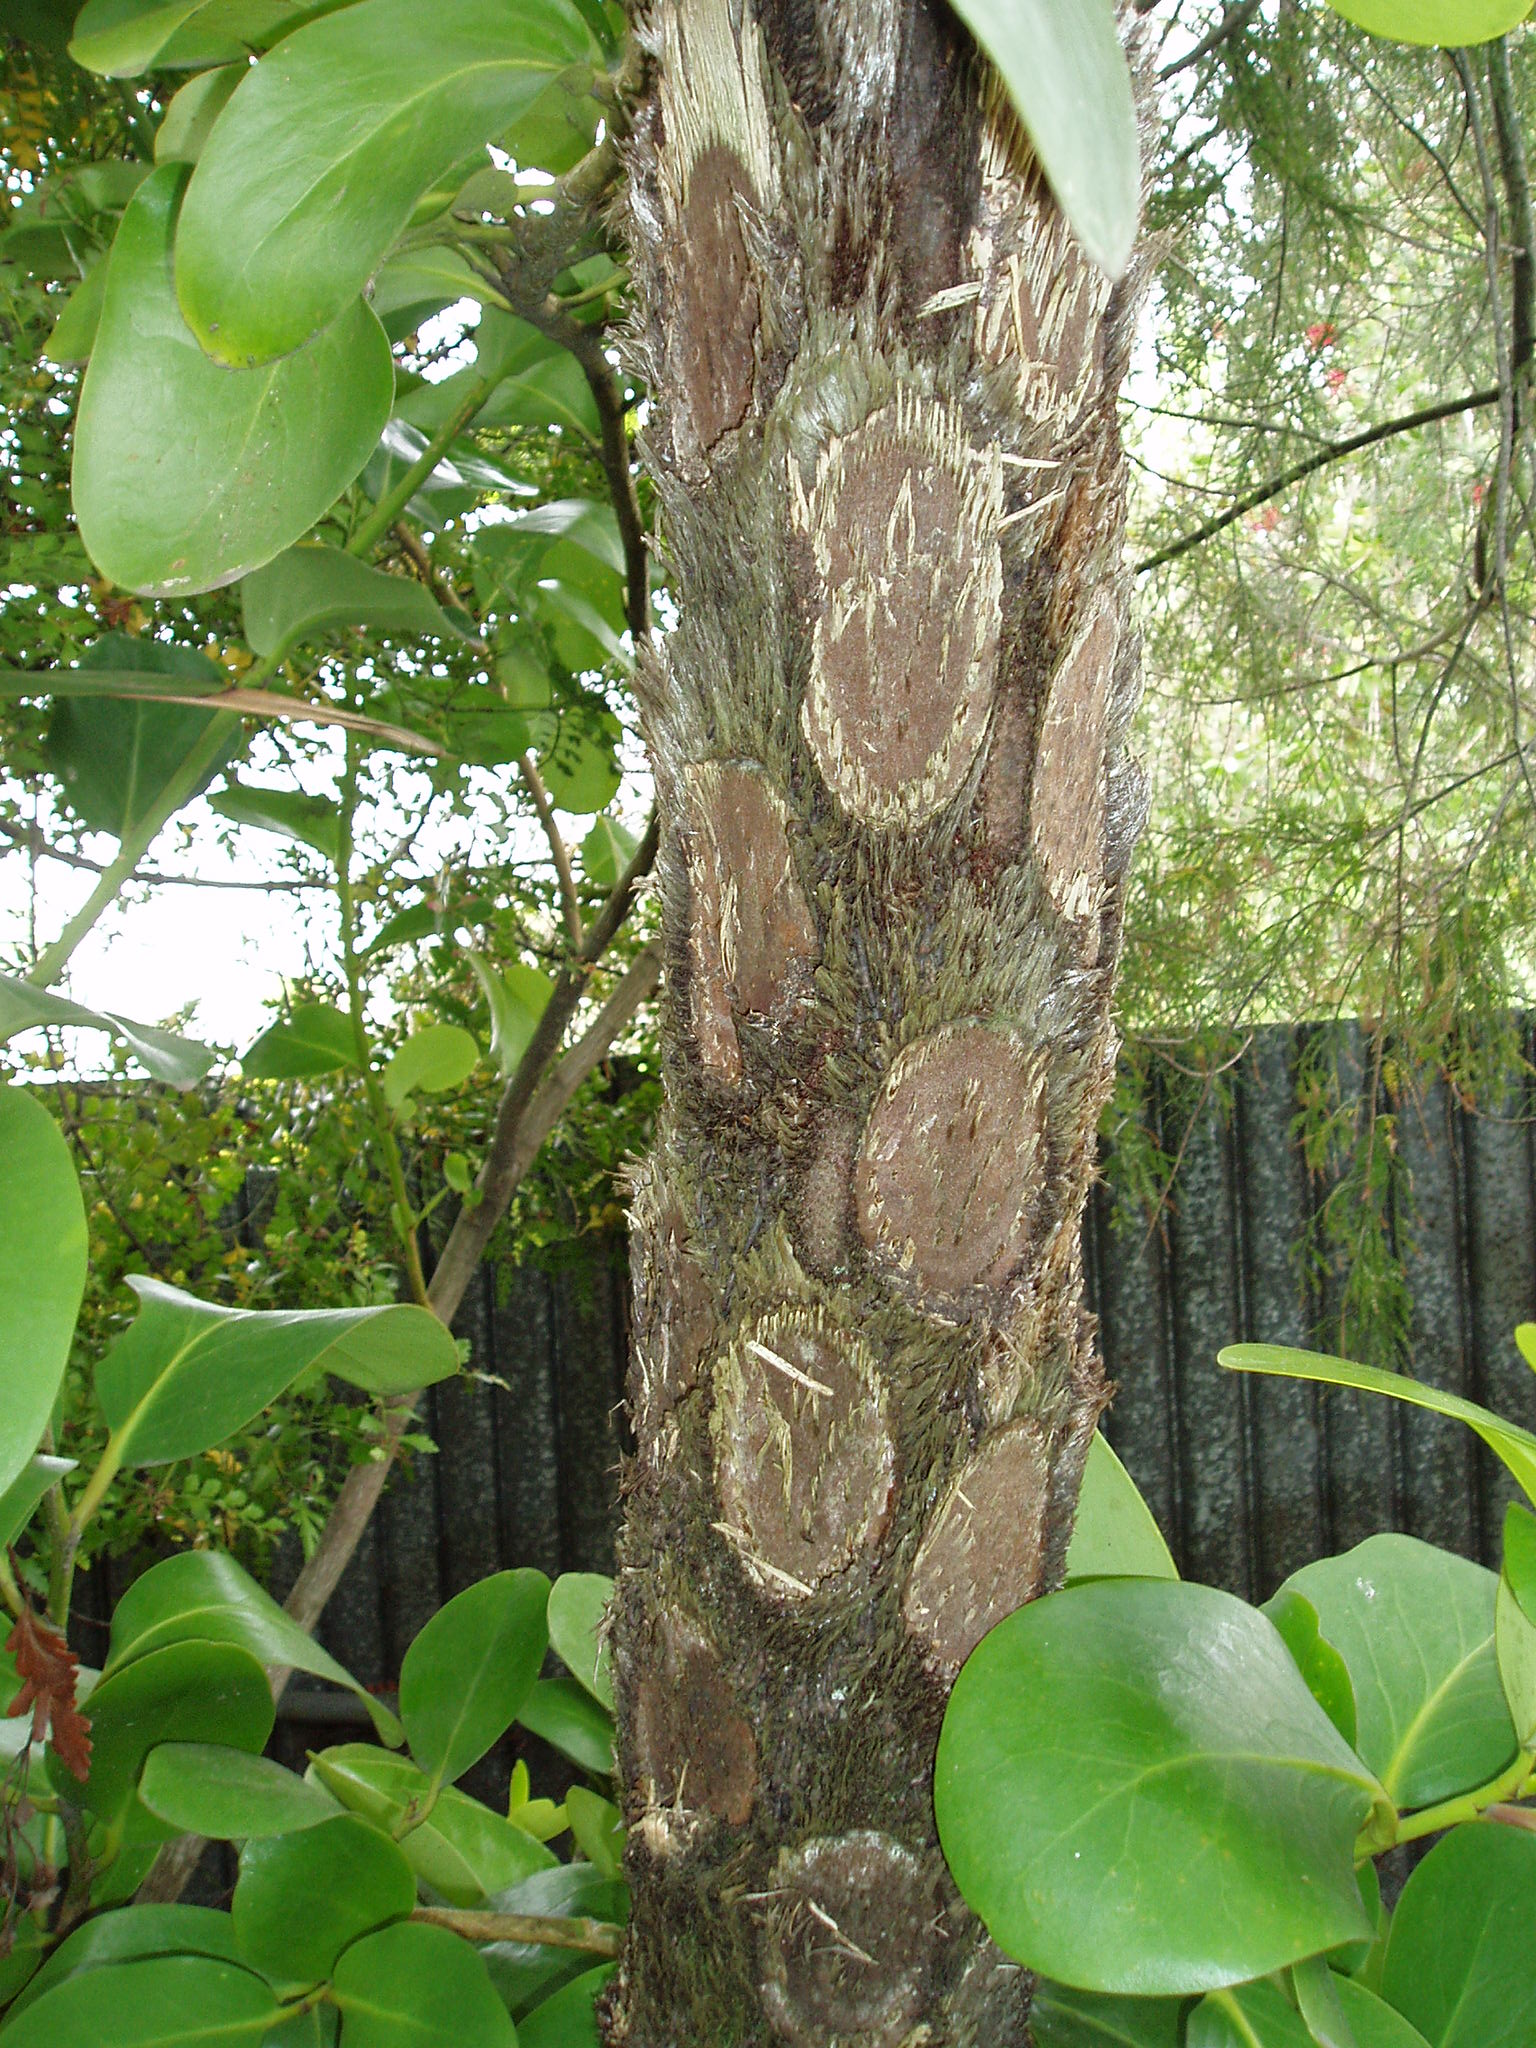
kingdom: Plantae
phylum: Tracheophyta
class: Polypodiopsida
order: Cyatheales
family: Cyatheaceae
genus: Sphaeropteris
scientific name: Sphaeropteris excelsa
